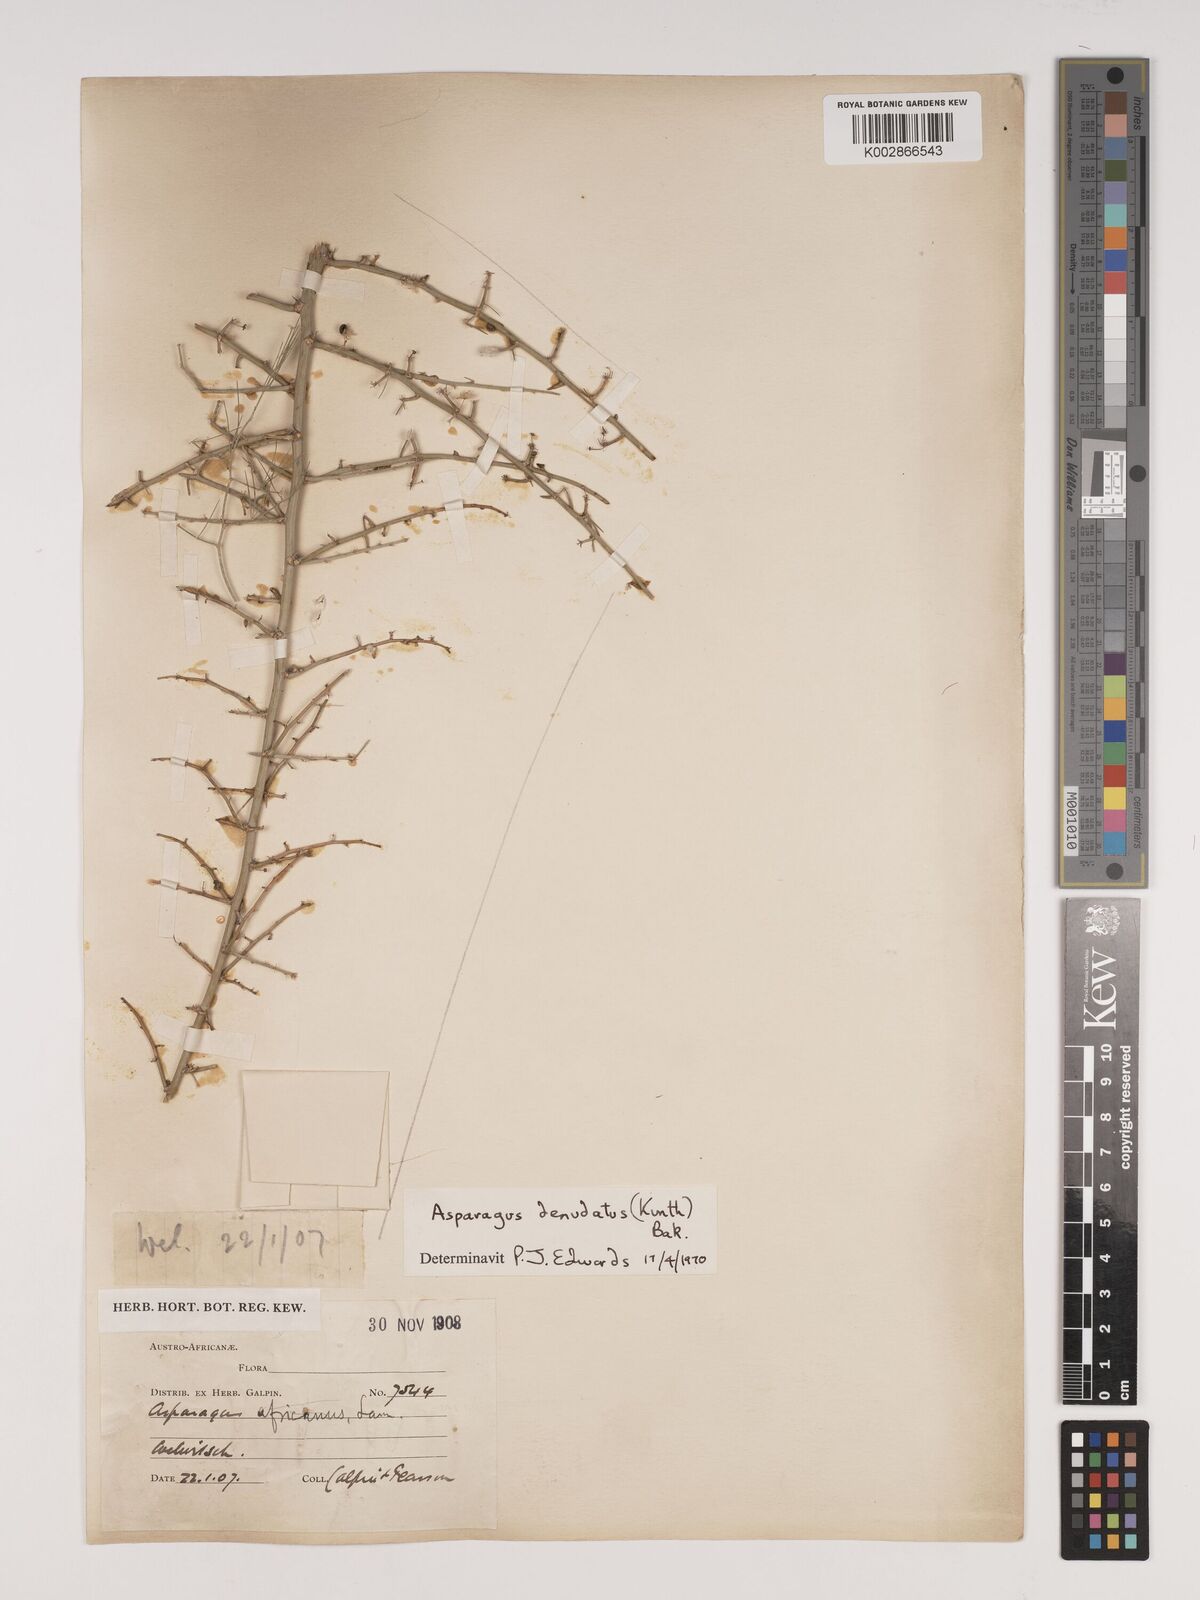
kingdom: Plantae
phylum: Tracheophyta
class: Liliopsida
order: Asparagales
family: Asparagaceae
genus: Asparagus
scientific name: Asparagus denudatus
